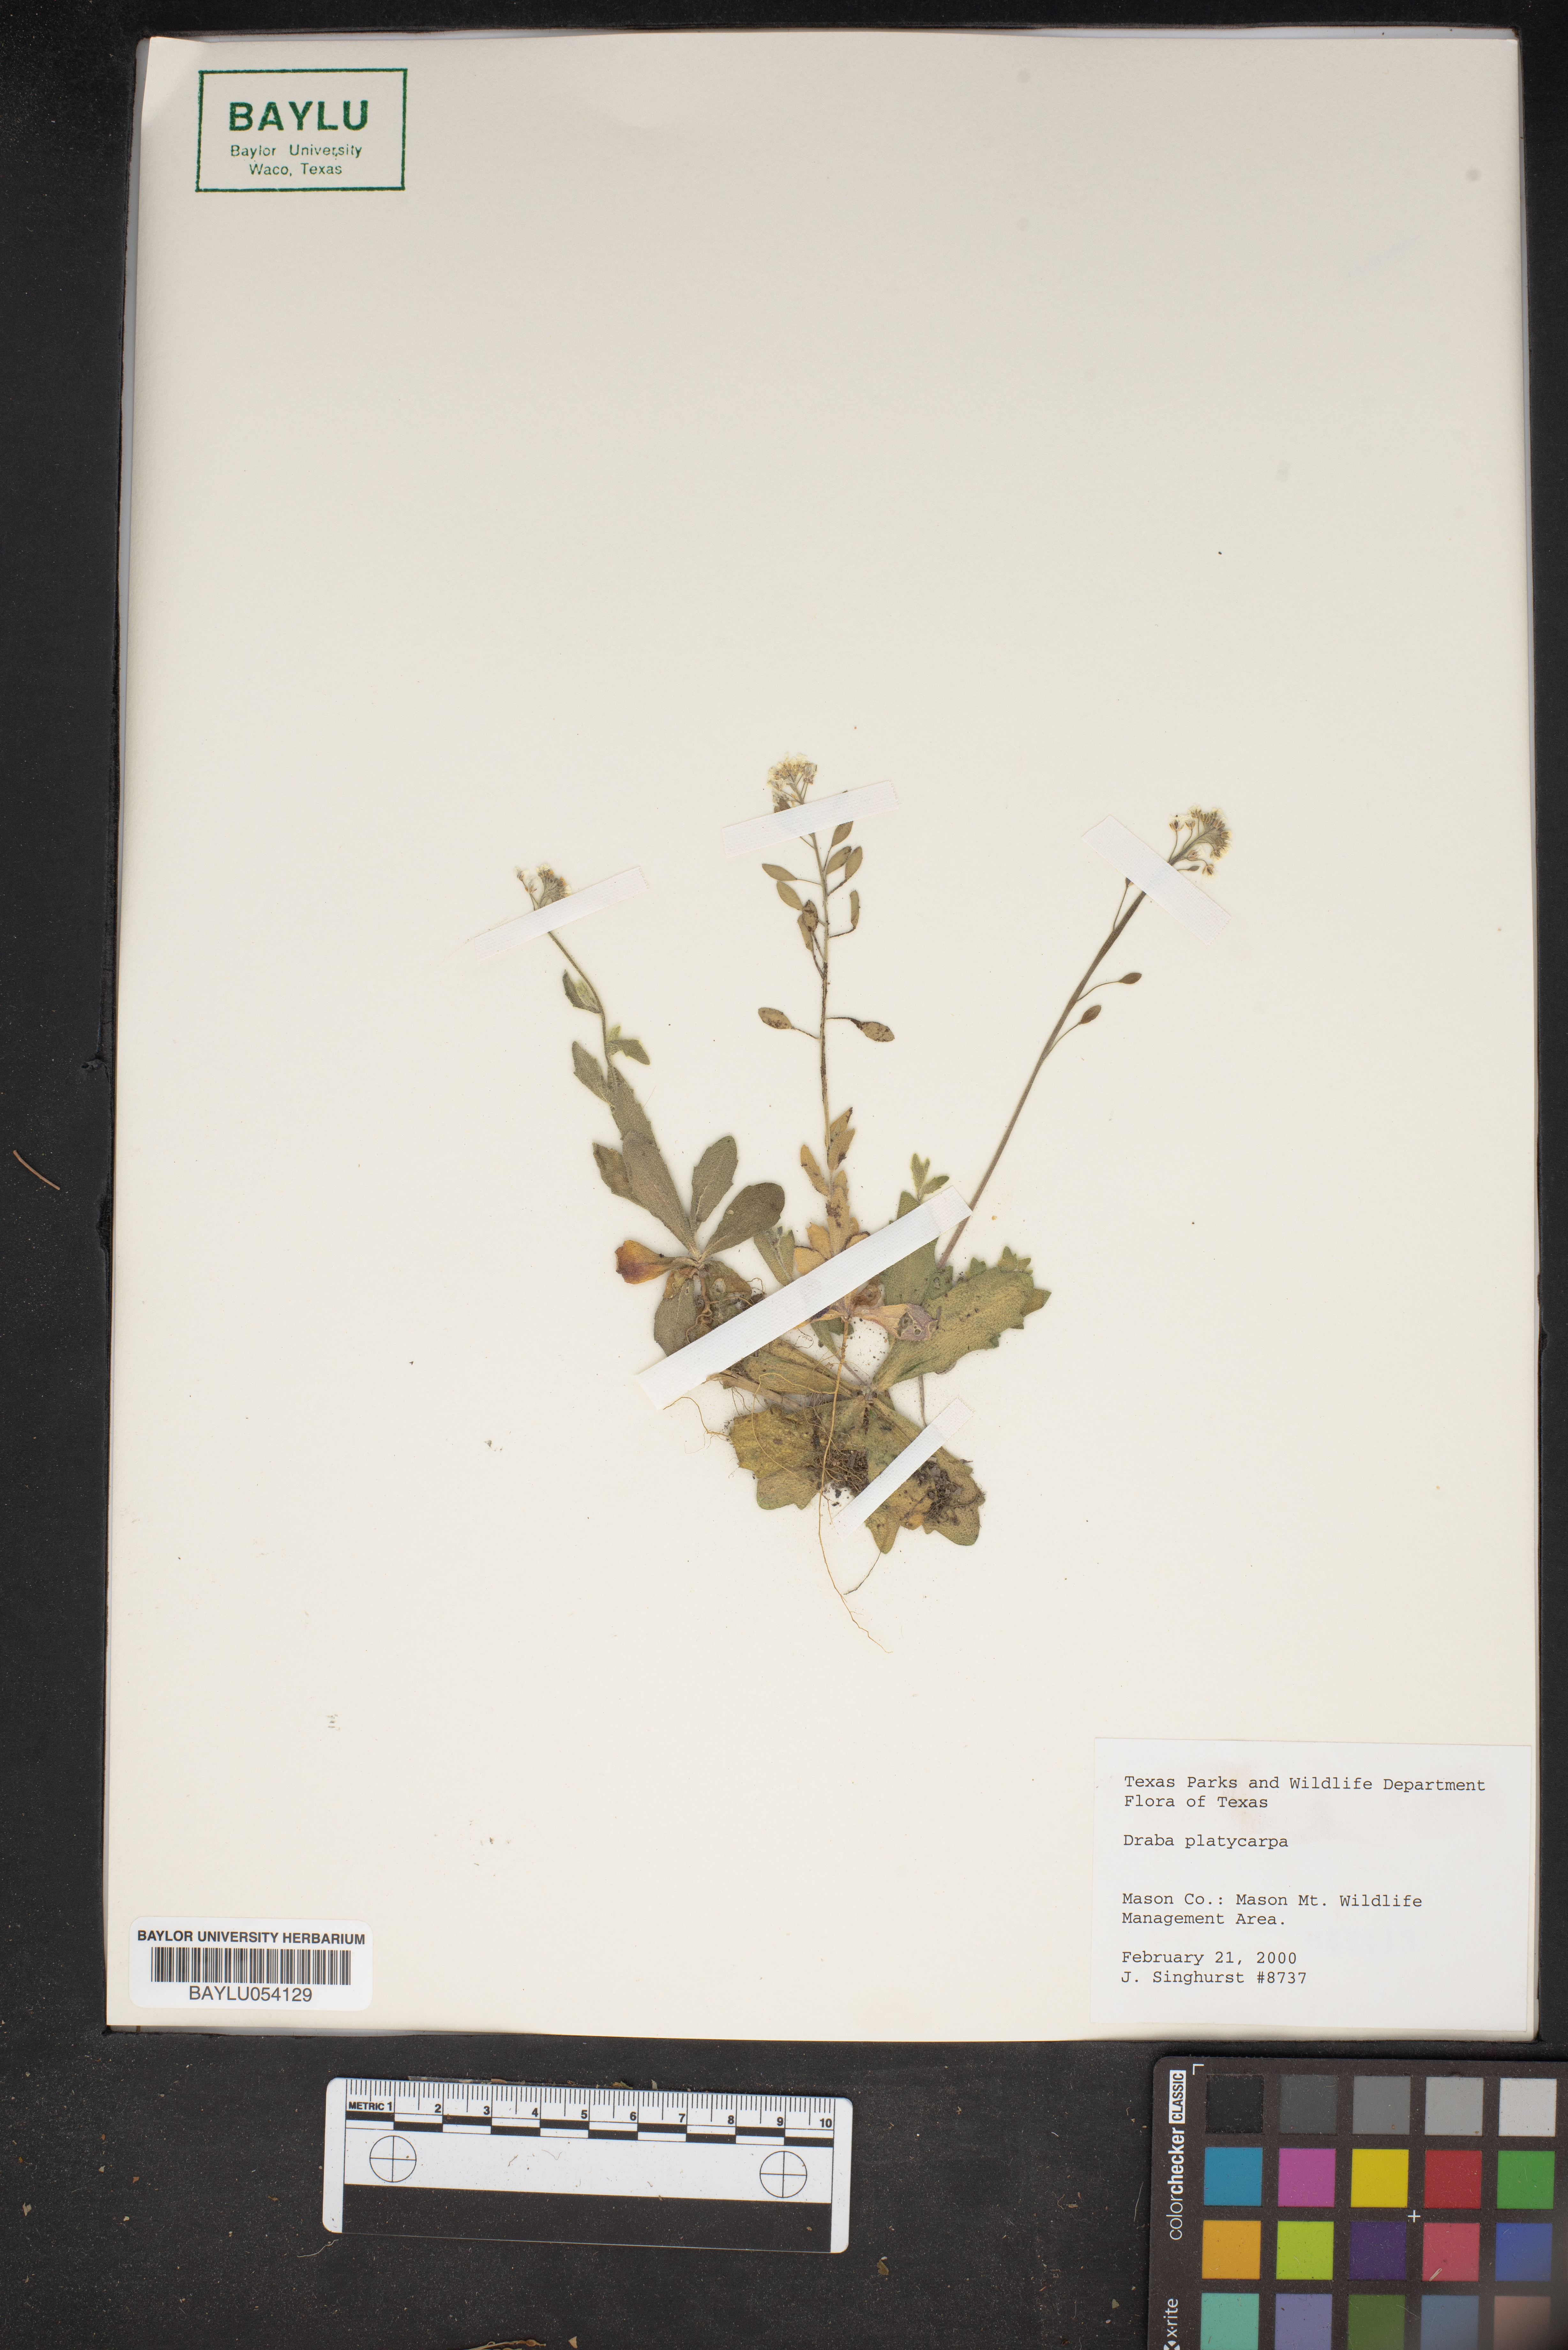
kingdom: Plantae
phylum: Tracheophyta
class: Magnoliopsida
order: Brassicales
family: Brassicaceae
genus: Tomostima
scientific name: Tomostima platycarpa
